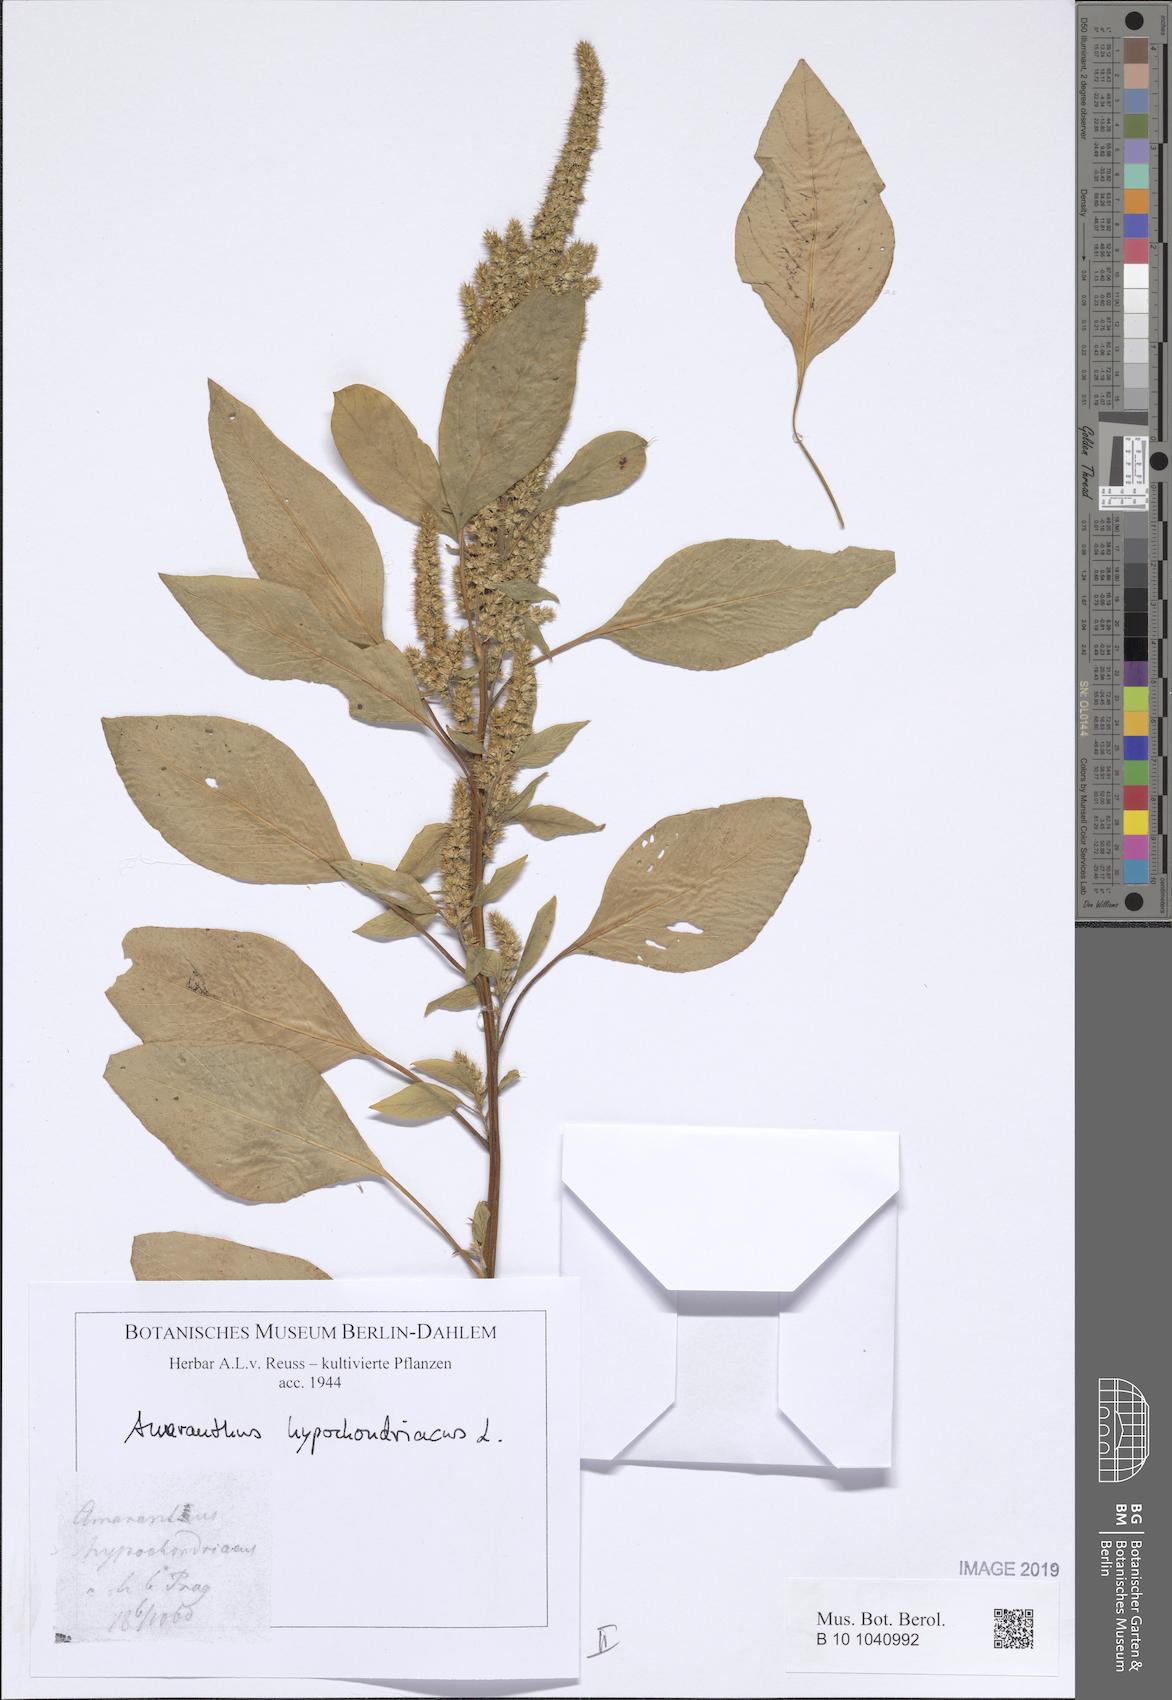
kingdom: Plantae
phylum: Tracheophyta
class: Magnoliopsida
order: Caryophyllales
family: Amaranthaceae
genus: Amaranthus
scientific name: Amaranthus hypochondriacus
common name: Prince's-feather
